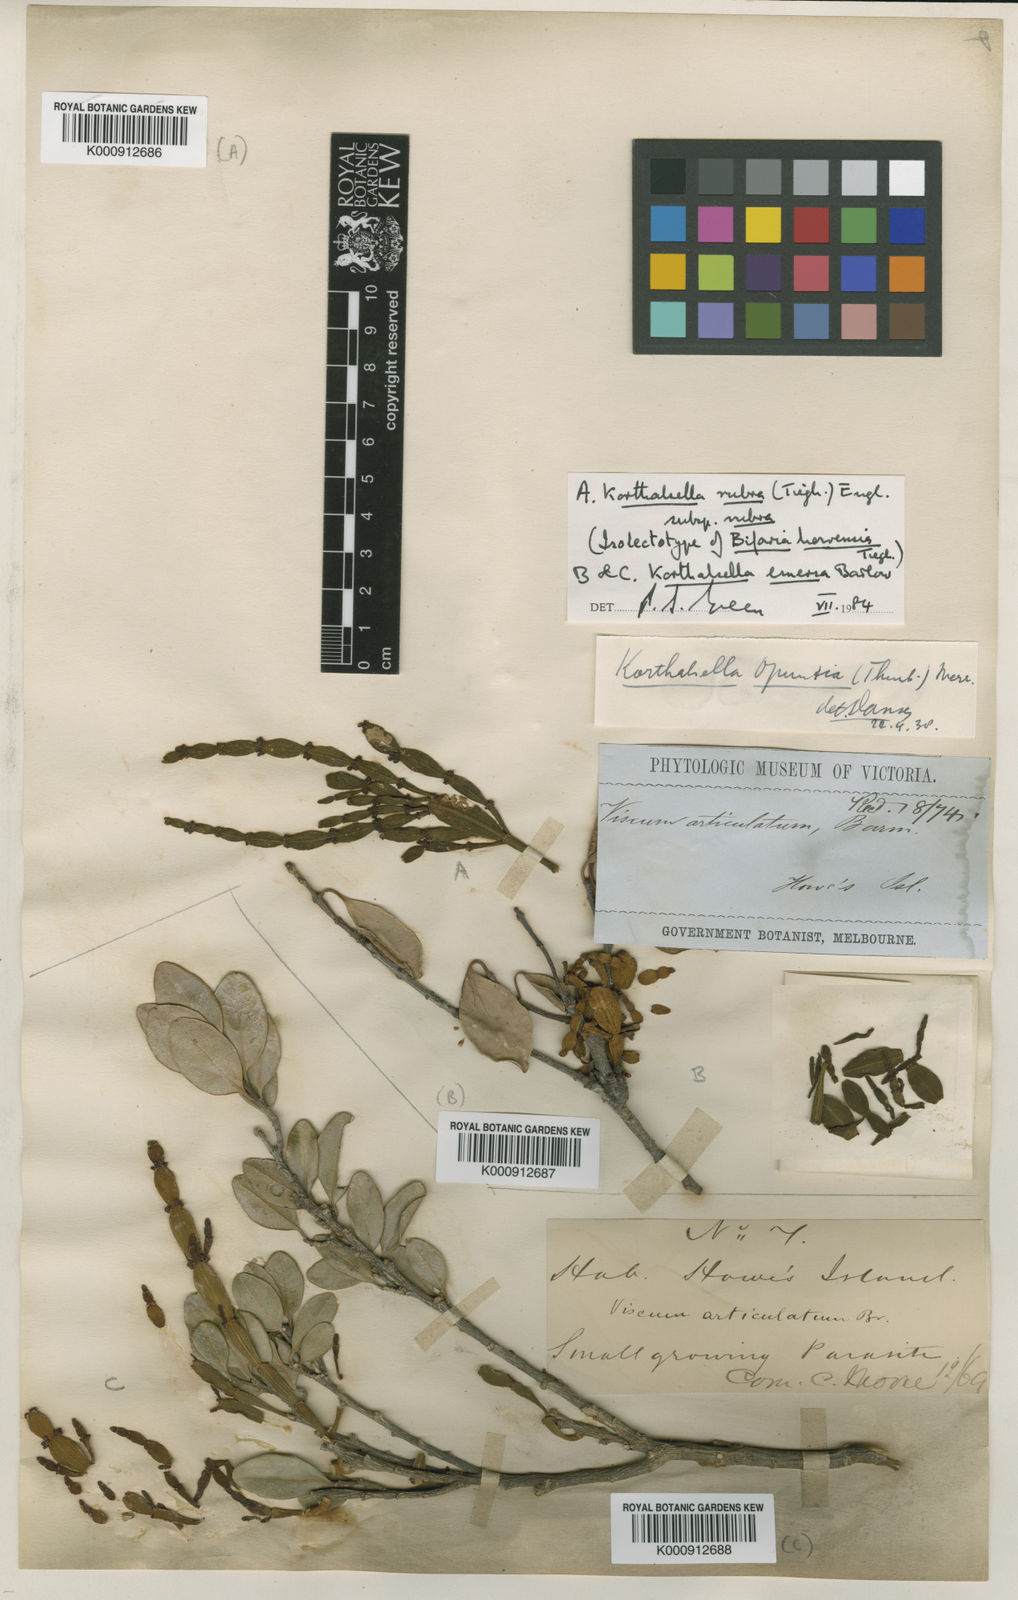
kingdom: Plantae
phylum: Tracheophyta
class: Magnoliopsida
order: Santalales
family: Viscaceae
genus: Korthalsella
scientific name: Korthalsella
